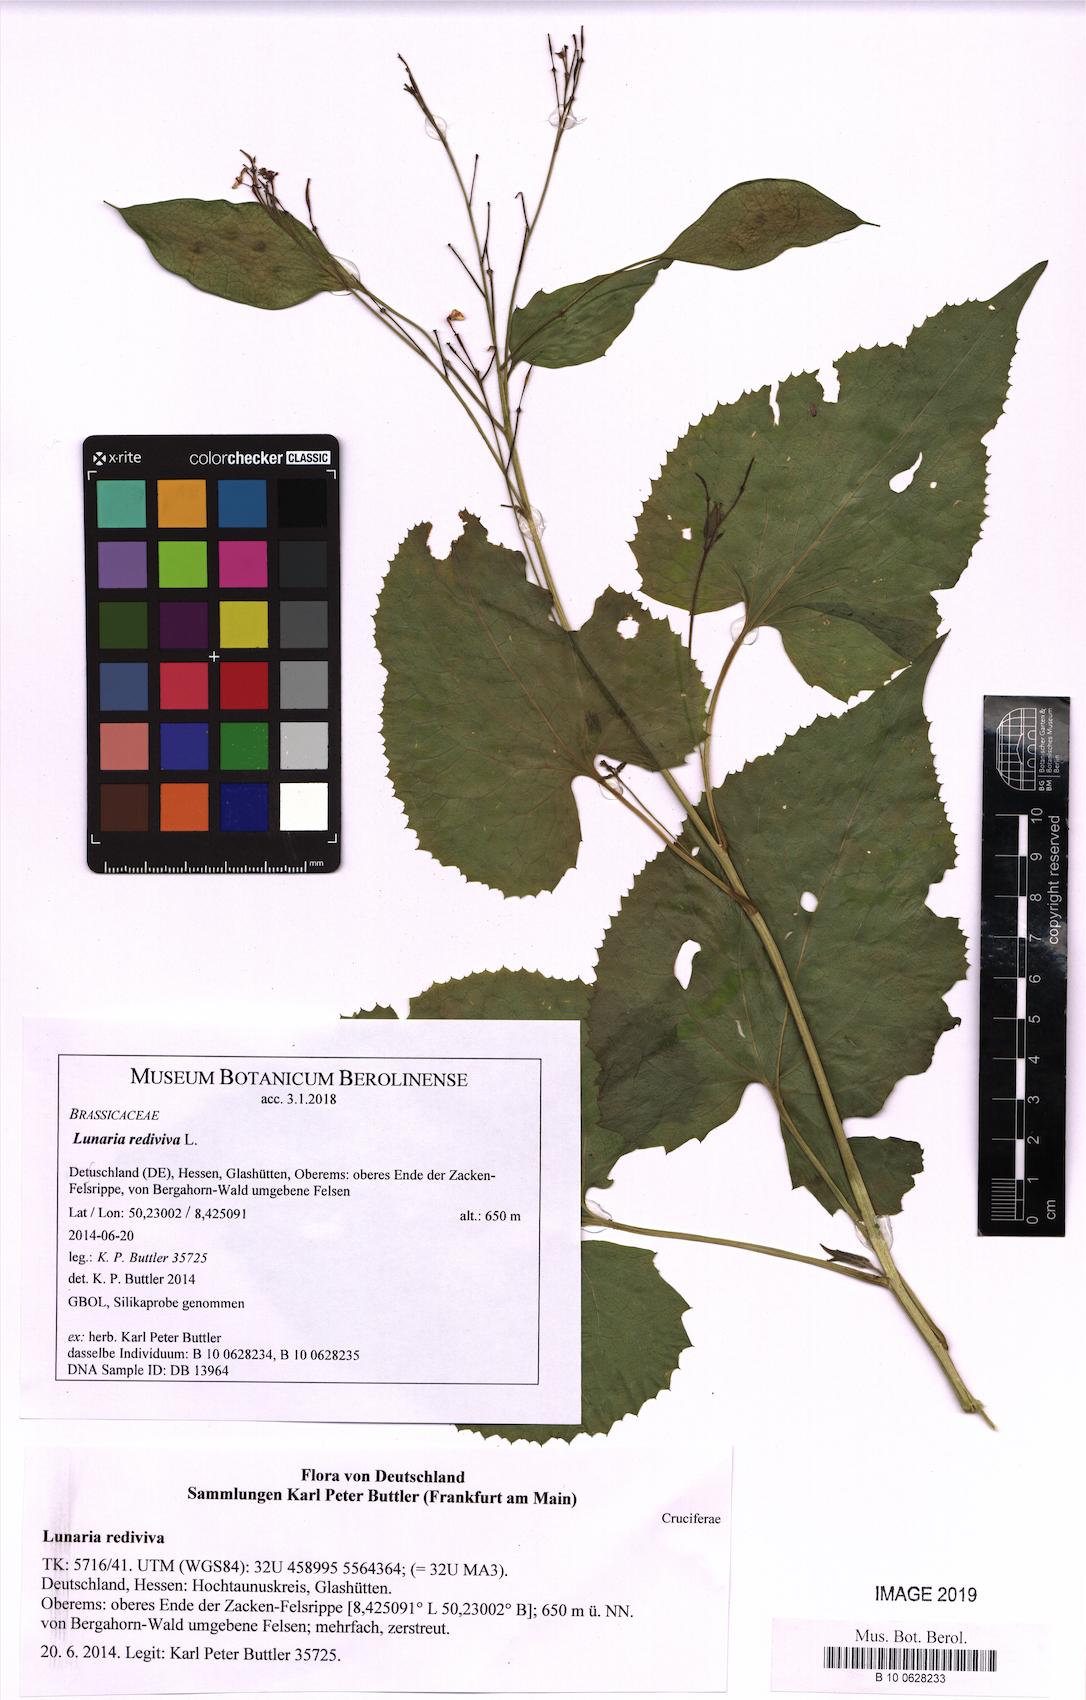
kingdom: Plantae
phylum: Tracheophyta
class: Magnoliopsida
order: Brassicales
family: Brassicaceae
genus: Lunaria
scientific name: Lunaria rediviva
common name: Perennial honesty
